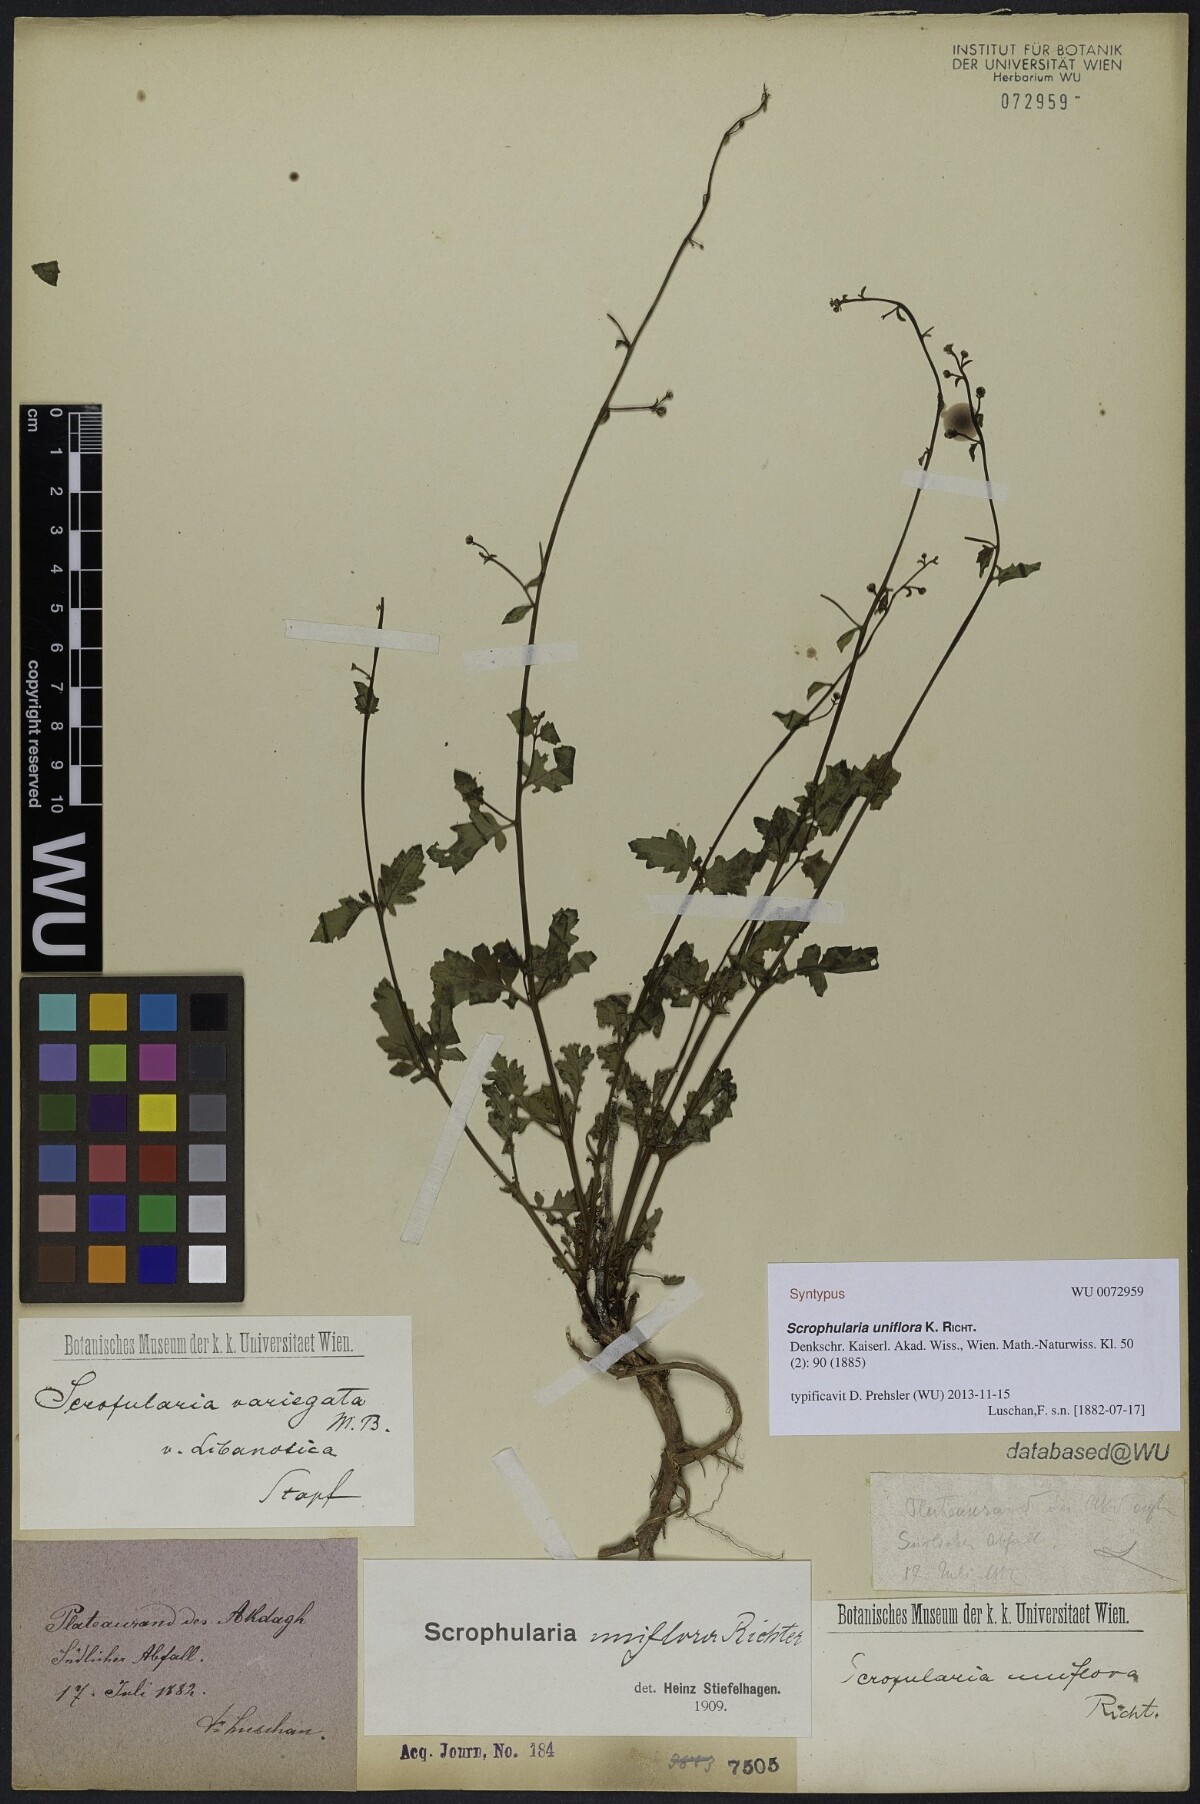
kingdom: Plantae
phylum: Tracheophyta
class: Magnoliopsida
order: Lamiales
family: Scrophulariaceae
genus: Scrophularia
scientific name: Scrophularia uniflora
